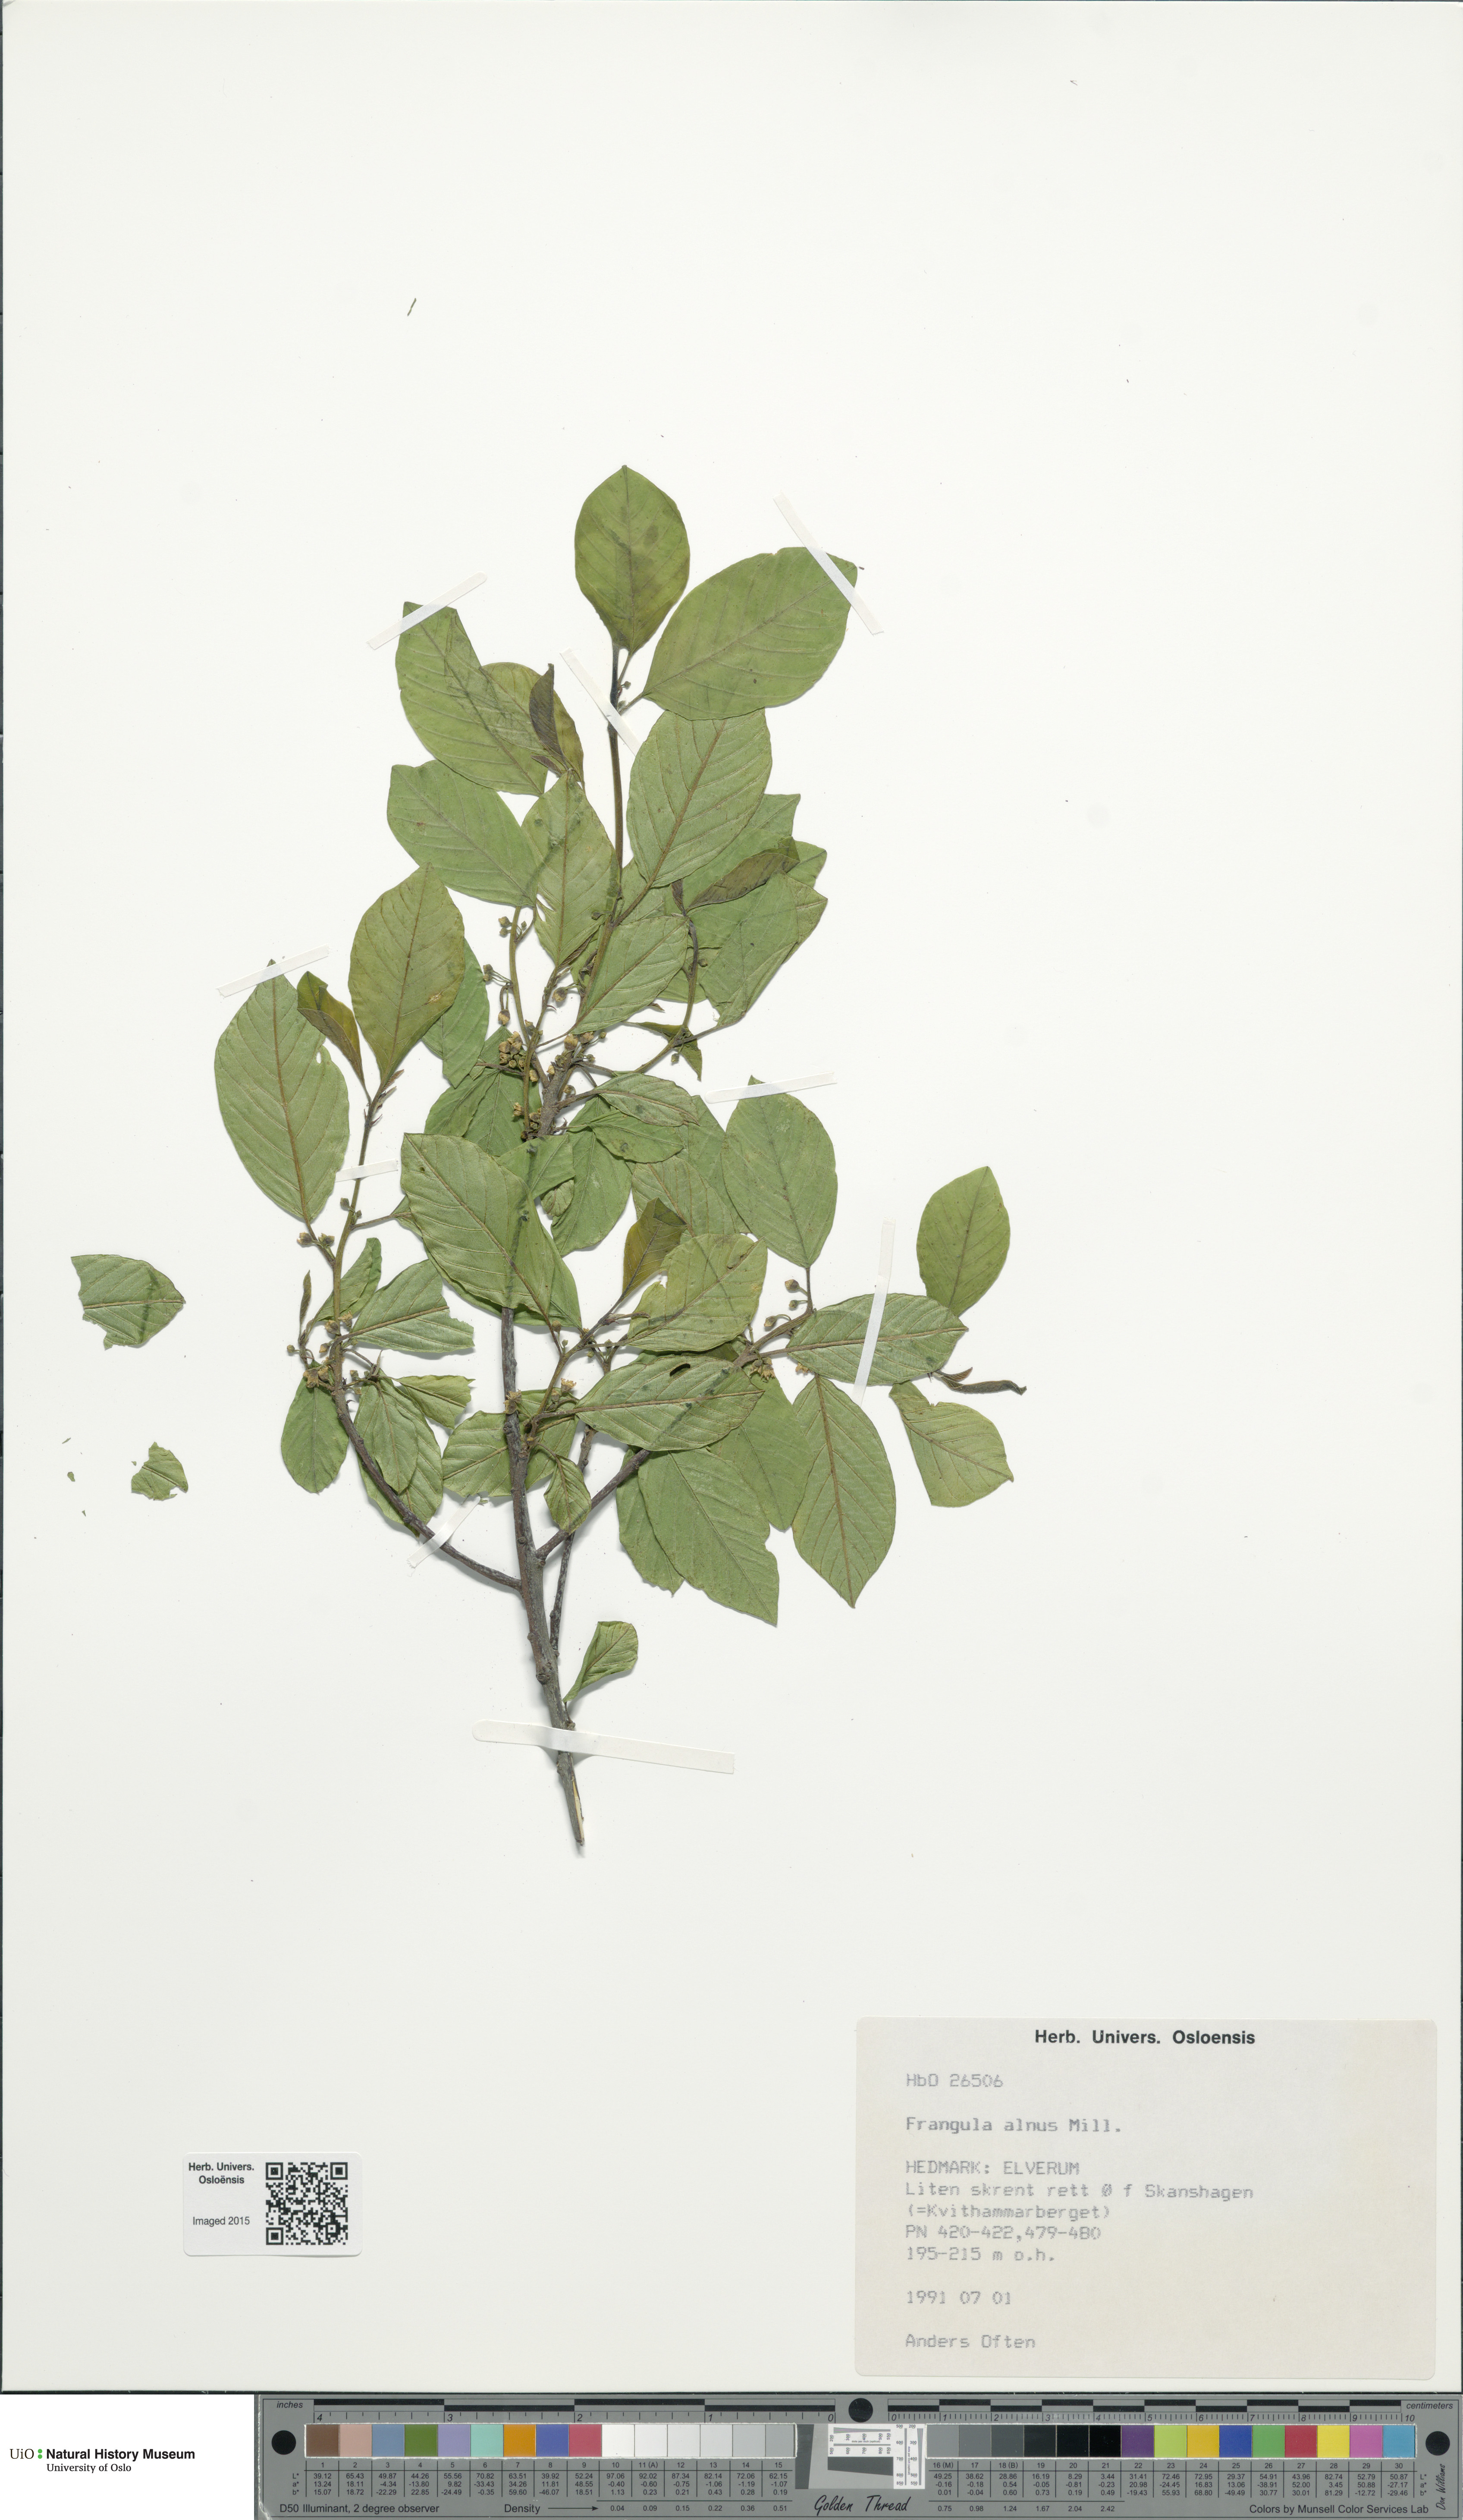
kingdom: Plantae
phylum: Tracheophyta
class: Magnoliopsida
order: Rosales
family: Rhamnaceae
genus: Frangula
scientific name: Frangula alnus
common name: Alder buckthorn
